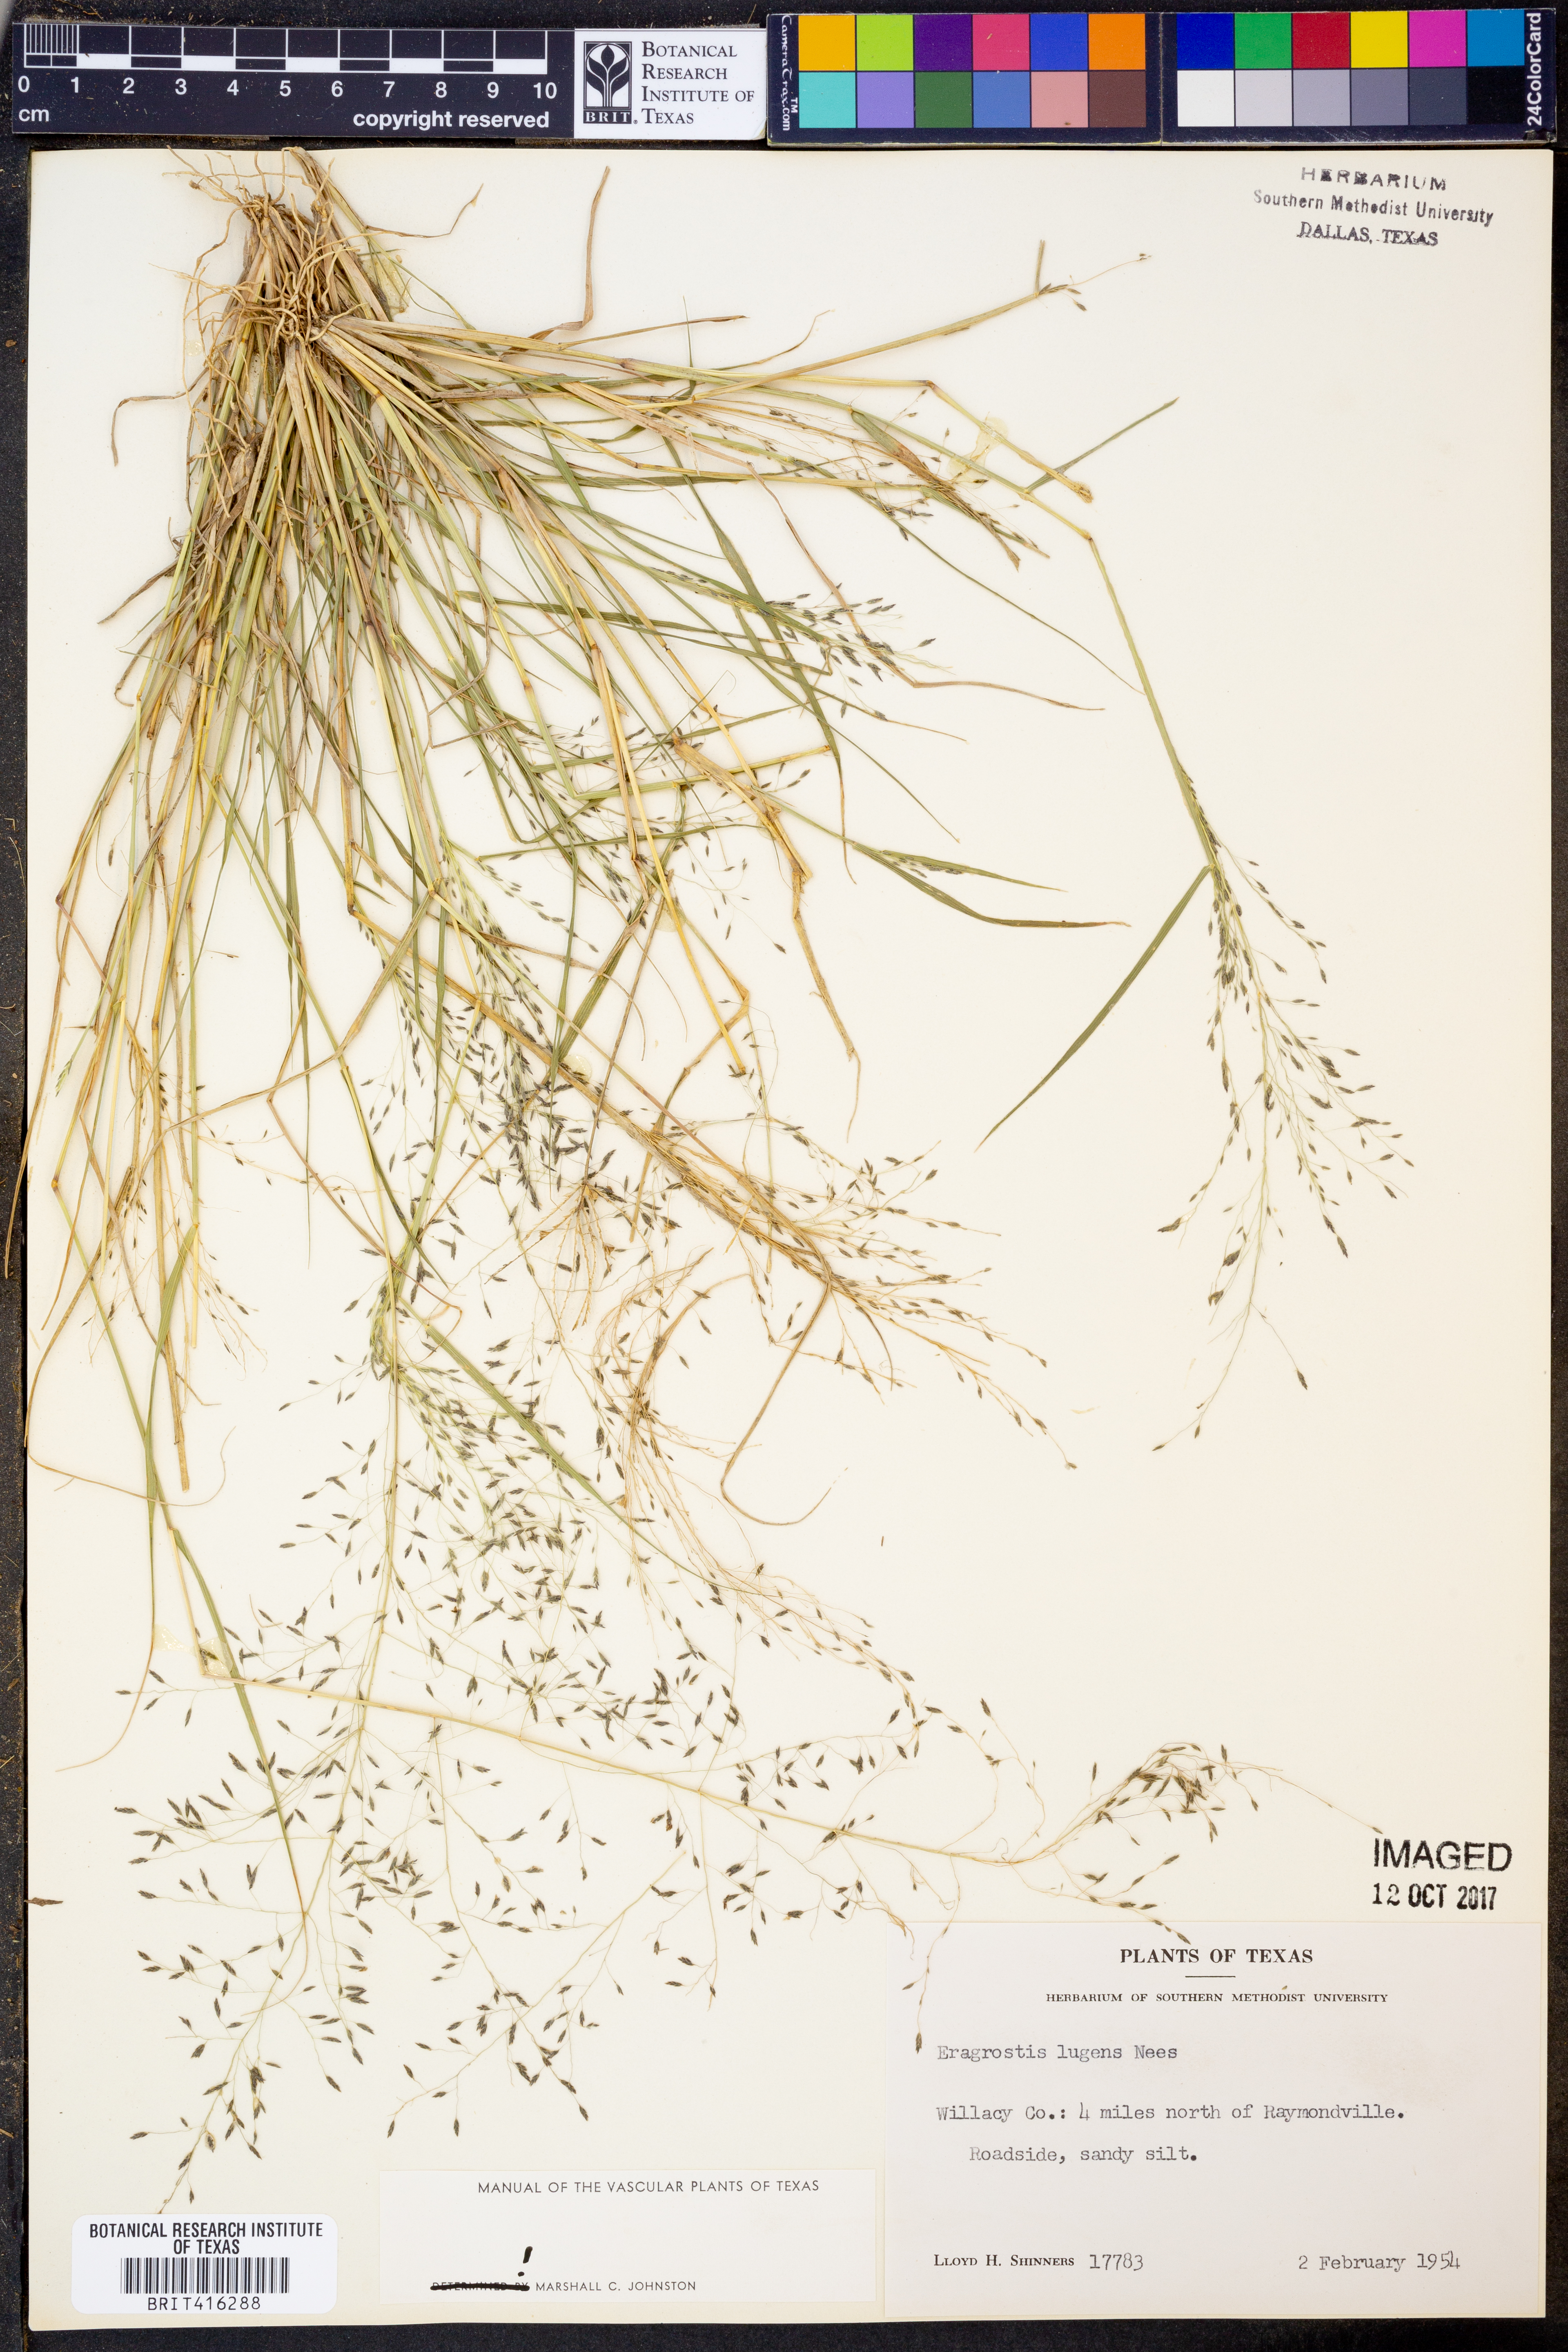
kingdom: Plantae
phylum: Tracheophyta
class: Liliopsida
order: Poales
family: Poaceae
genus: Eragrostis
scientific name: Eragrostis capillaris
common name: Hair-like lovegrass
